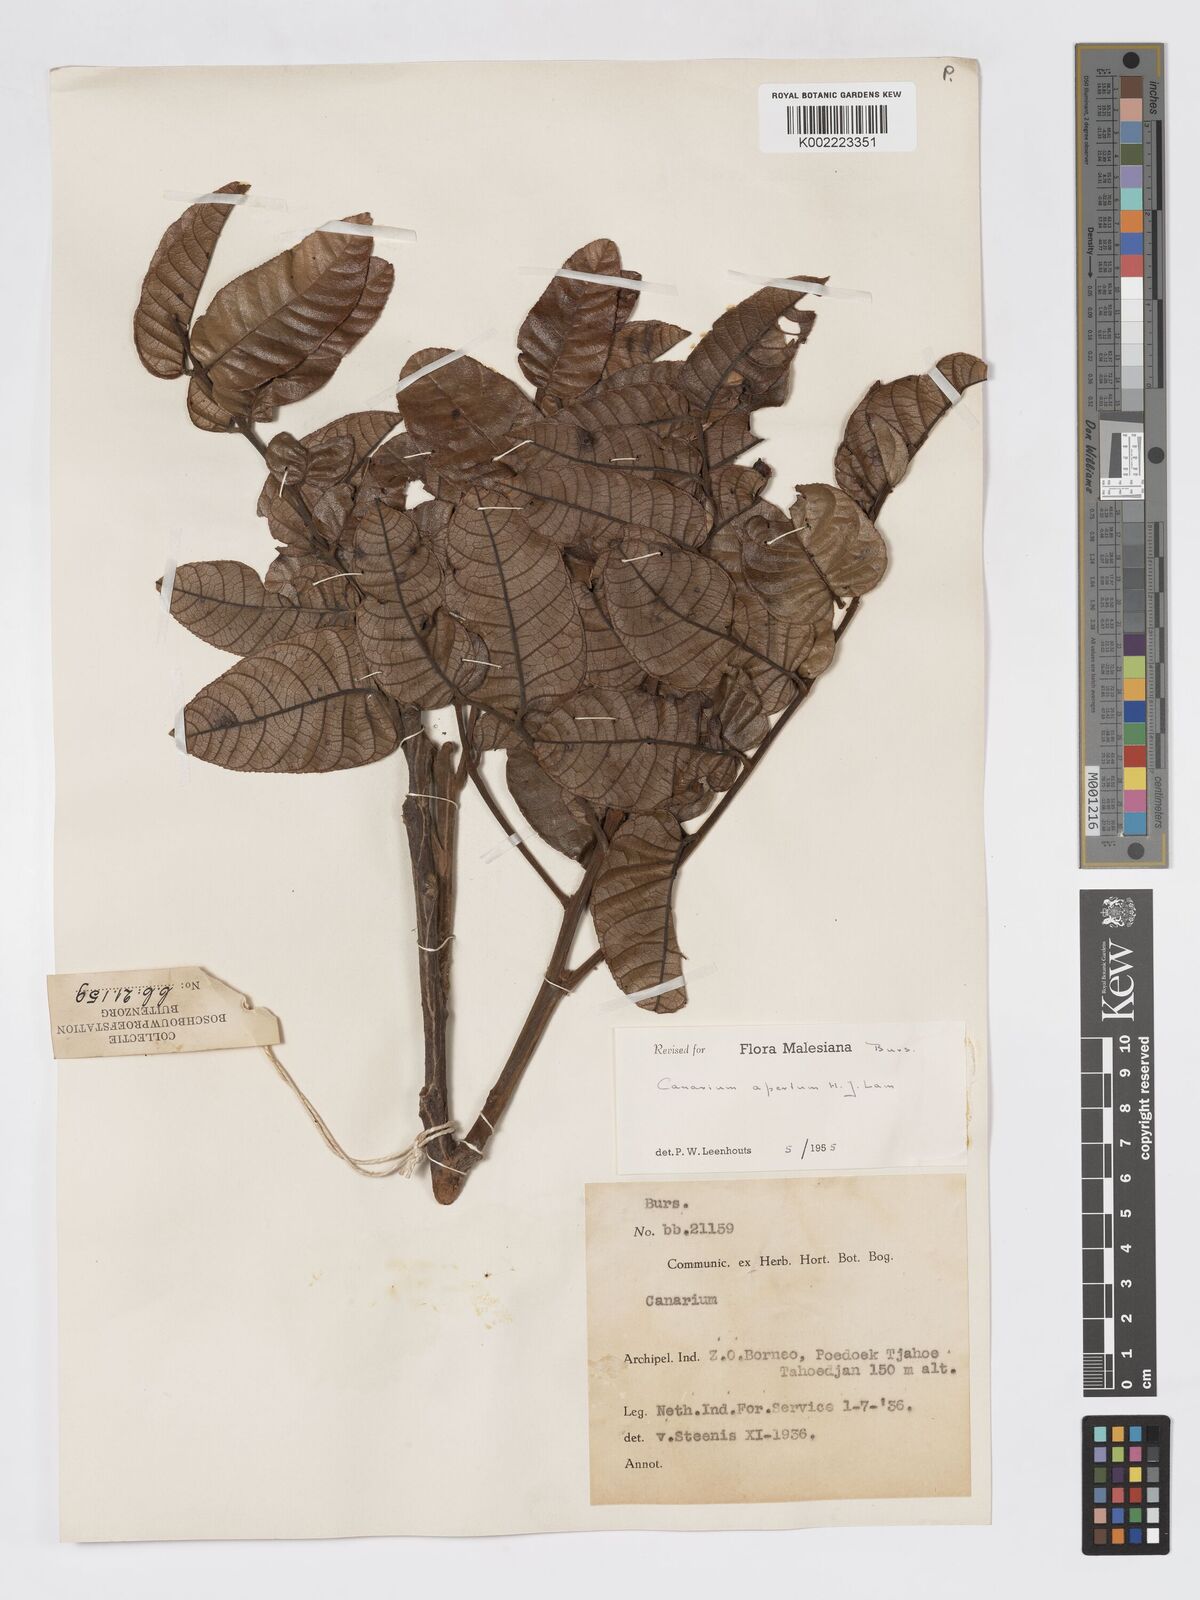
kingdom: Plantae
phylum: Tracheophyta
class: Magnoliopsida
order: Sapindales
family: Burseraceae
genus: Canarium
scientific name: Canarium apertum
